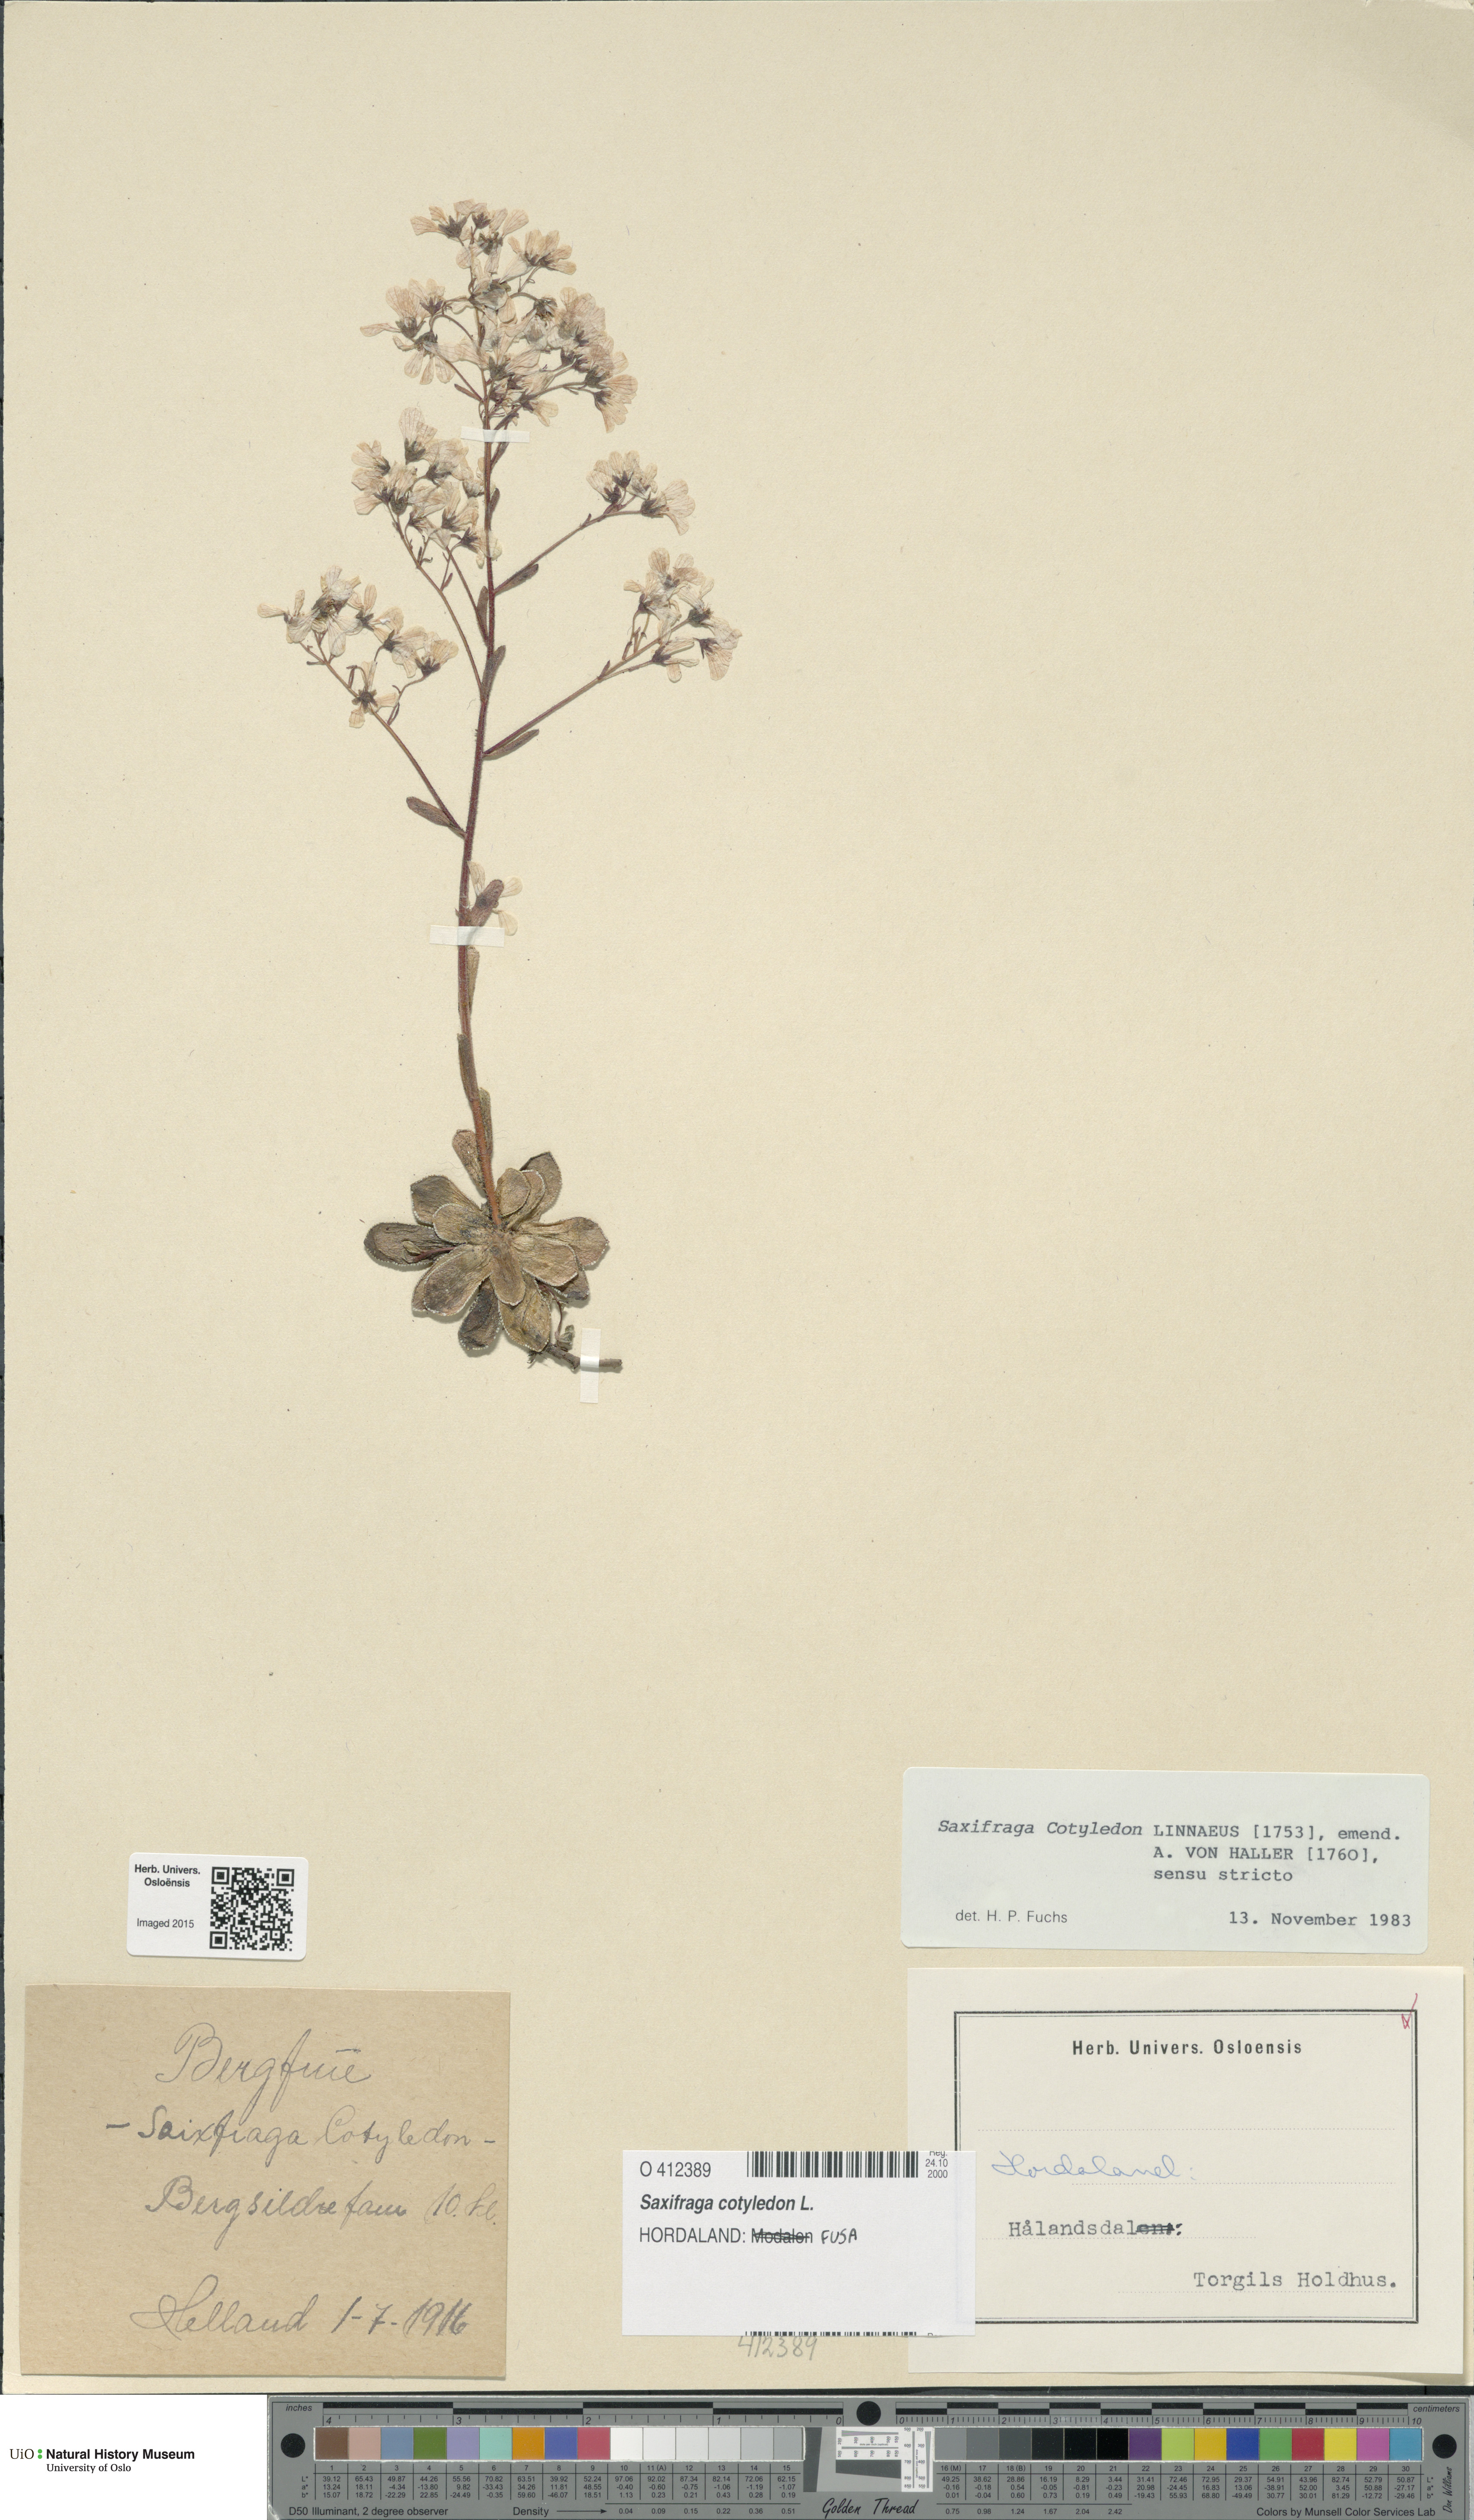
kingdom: Plantae
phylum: Tracheophyta
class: Magnoliopsida
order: Saxifragales
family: Saxifragaceae
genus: Saxifraga
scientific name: Saxifraga cotyledon
